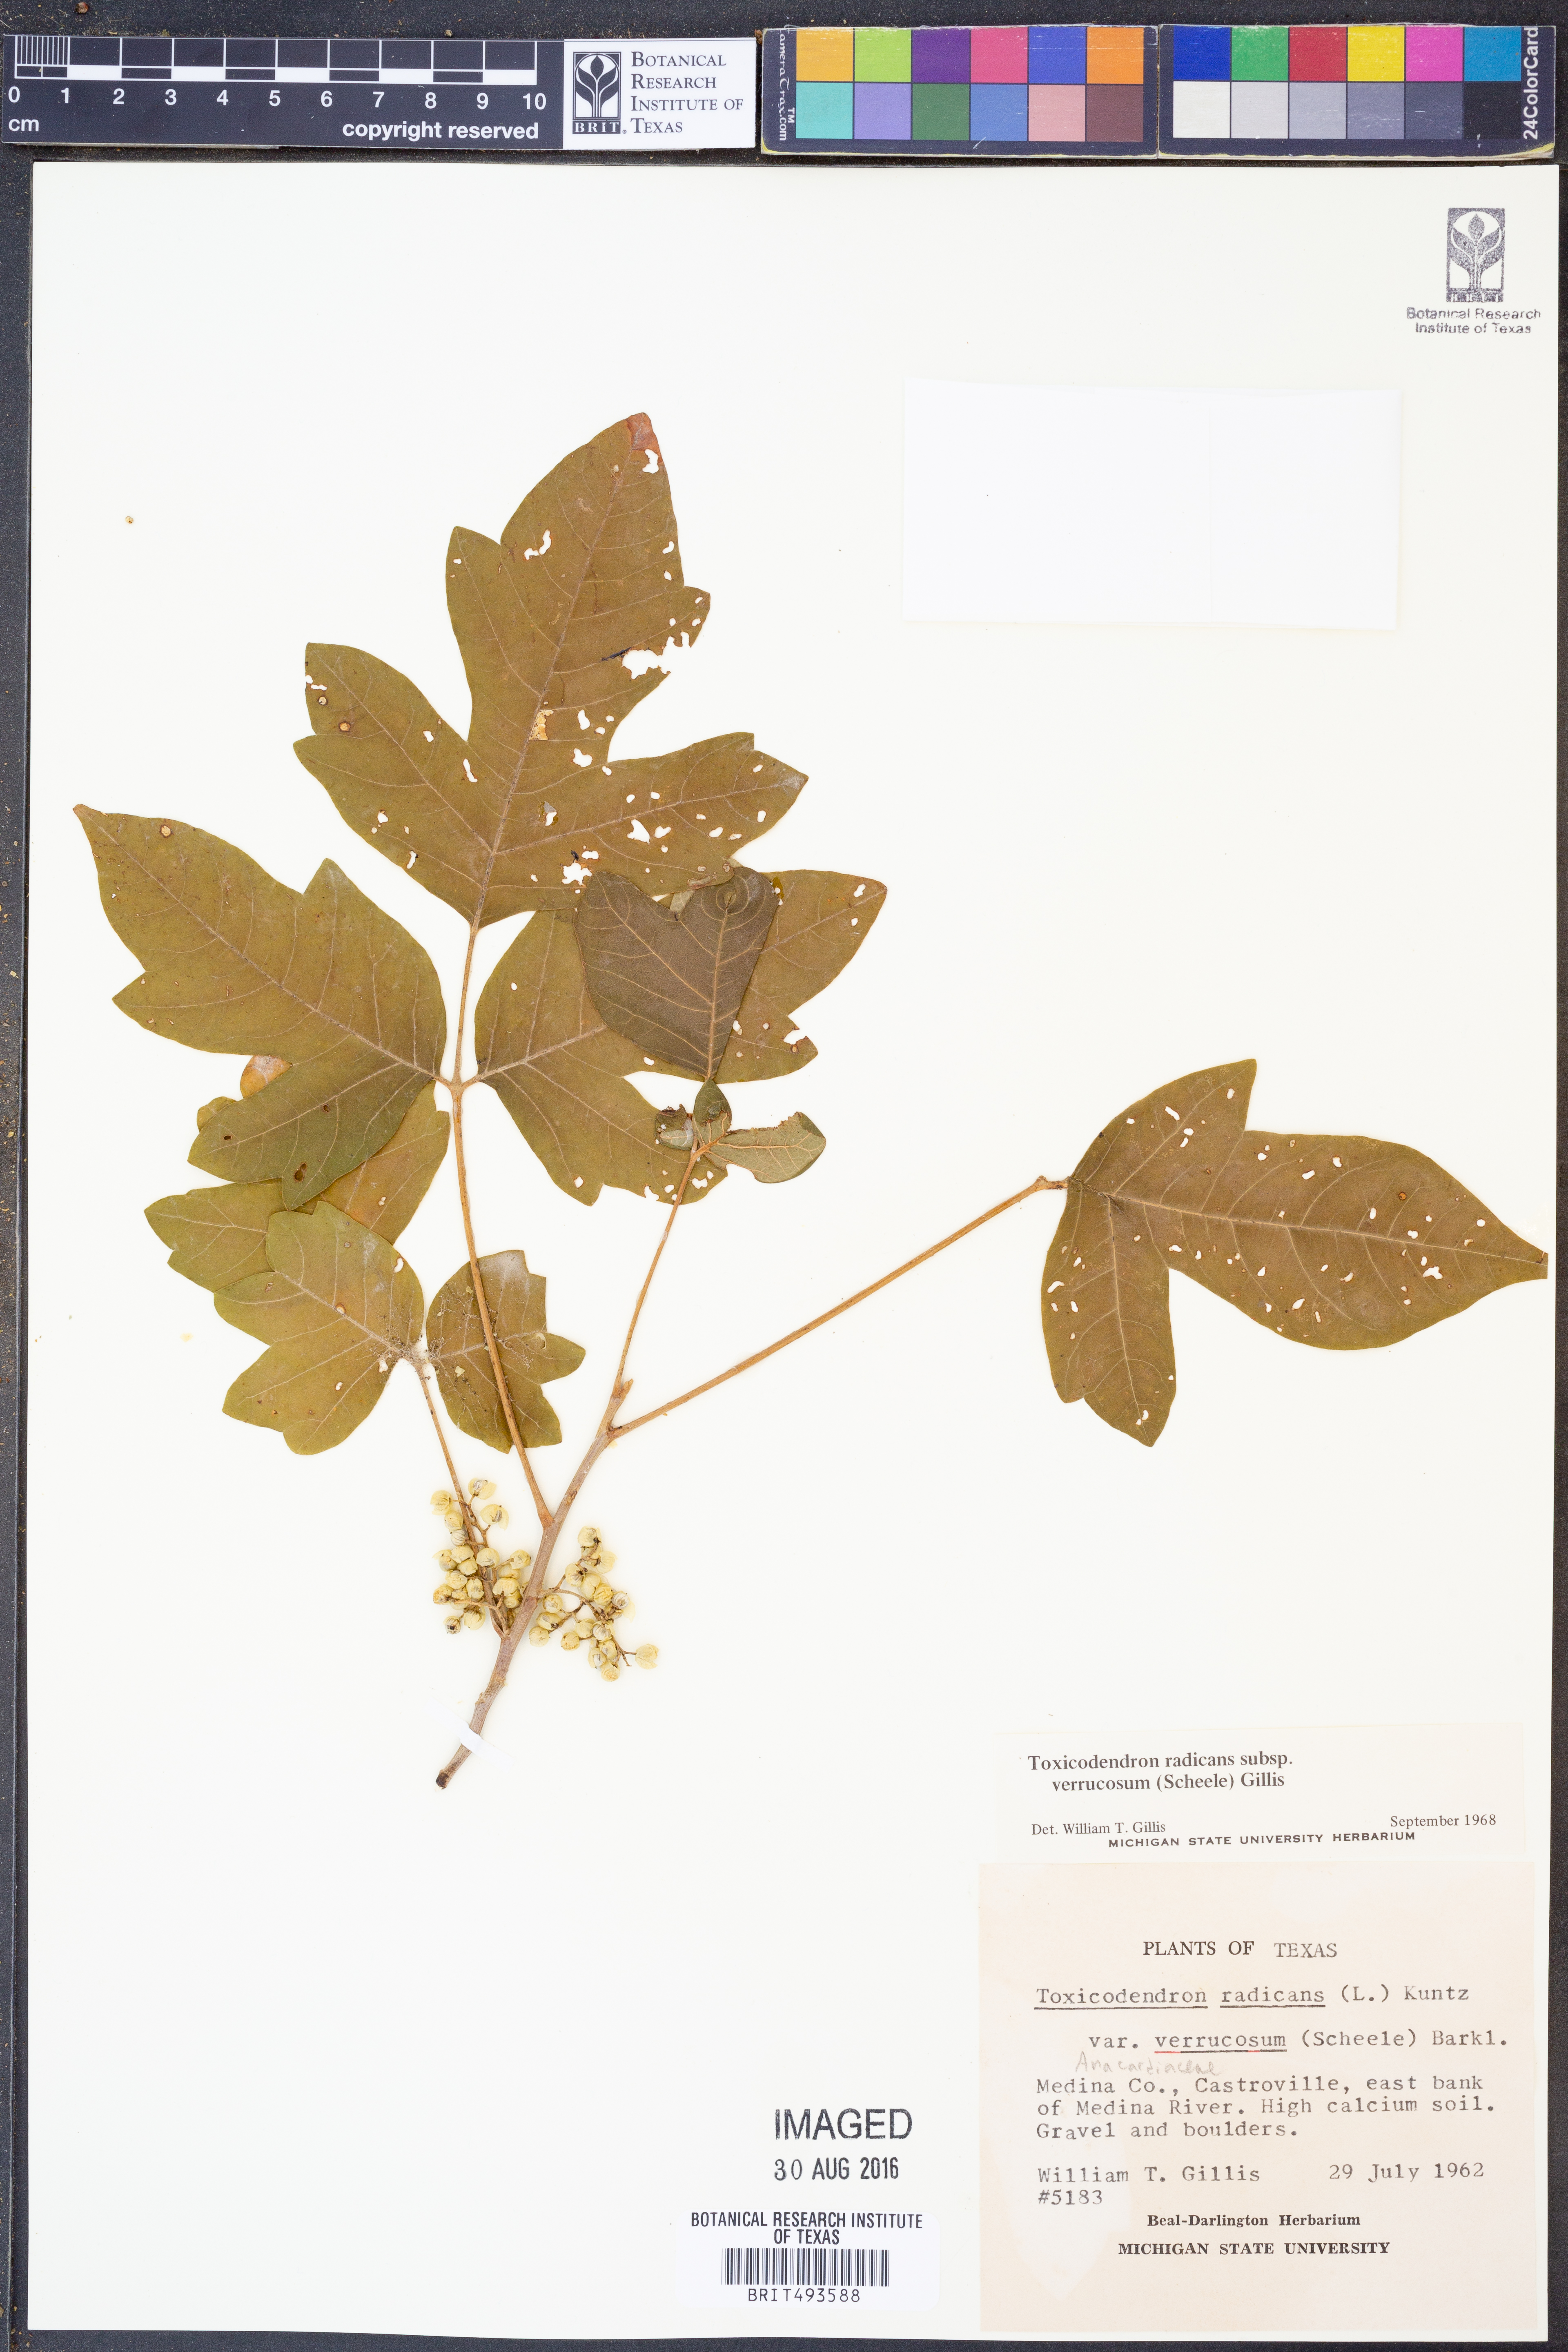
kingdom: Plantae
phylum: Tracheophyta
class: Magnoliopsida
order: Sapindales
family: Anacardiaceae
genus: Toxicodendron
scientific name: Toxicodendron radicans
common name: Poison ivy
